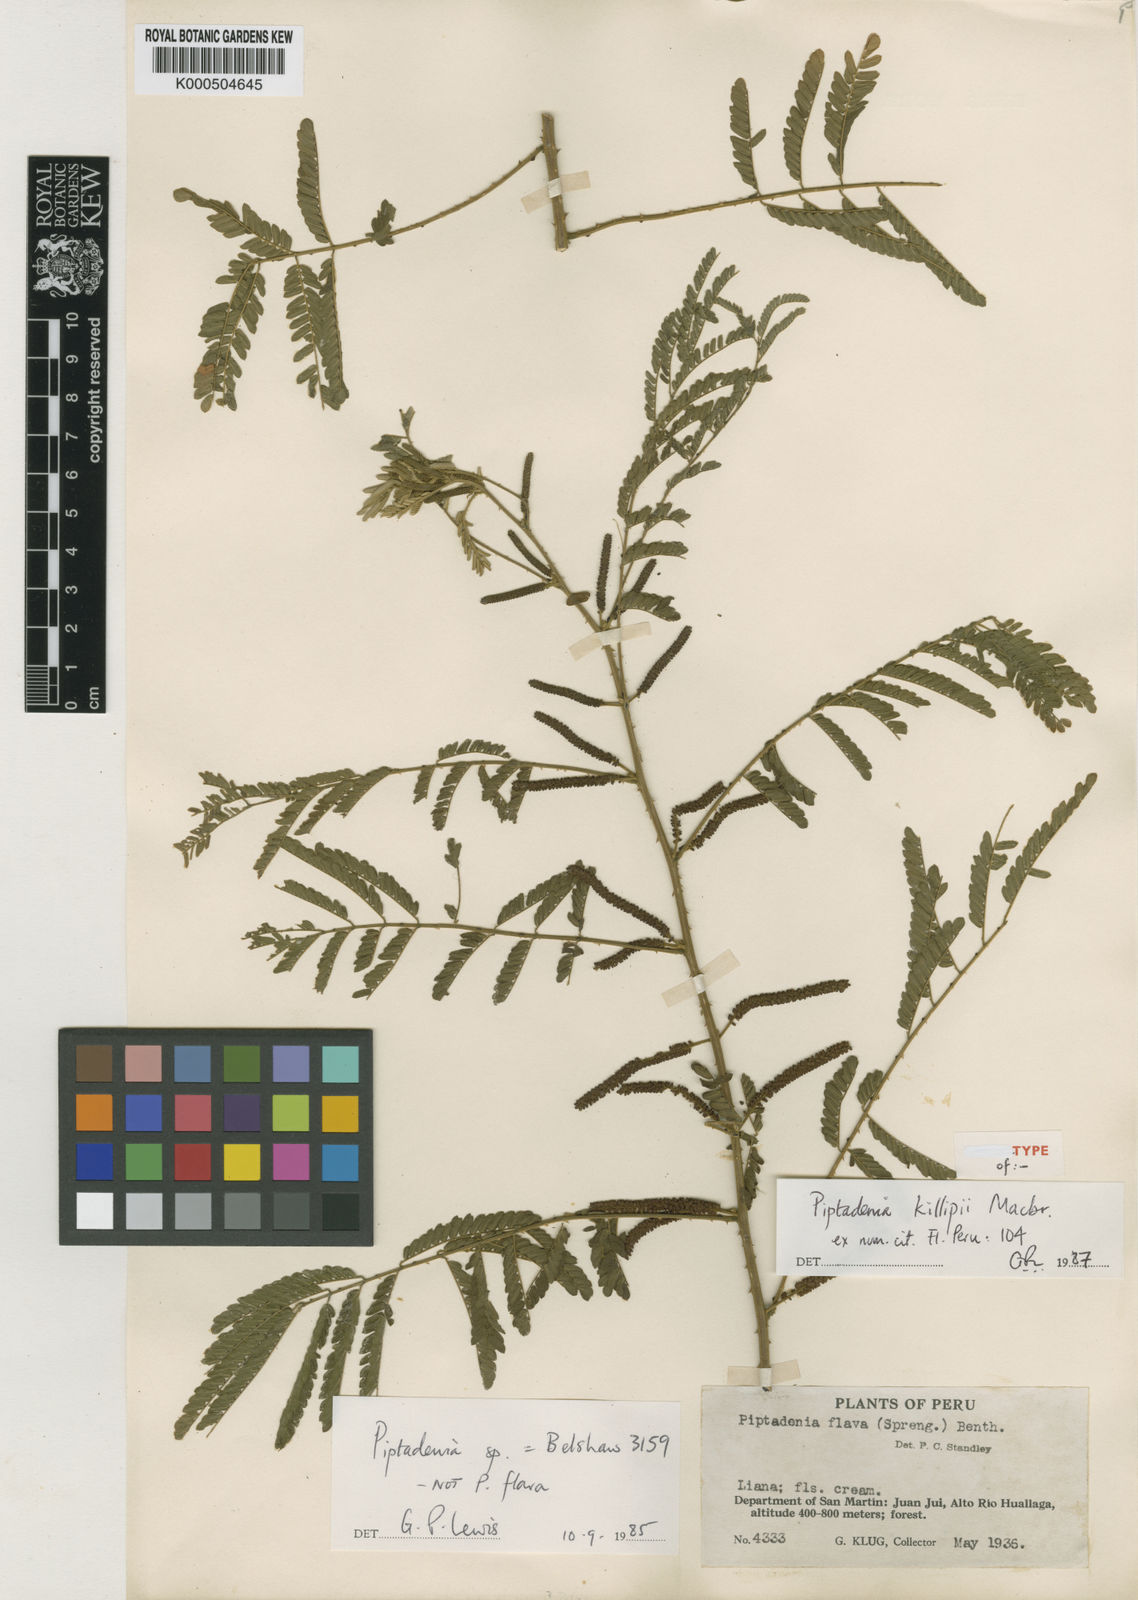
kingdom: Plantae
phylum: Tracheophyta
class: Magnoliopsida
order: Fabales
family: Fabaceae
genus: Piptadenia
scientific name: Piptadenia killipii
